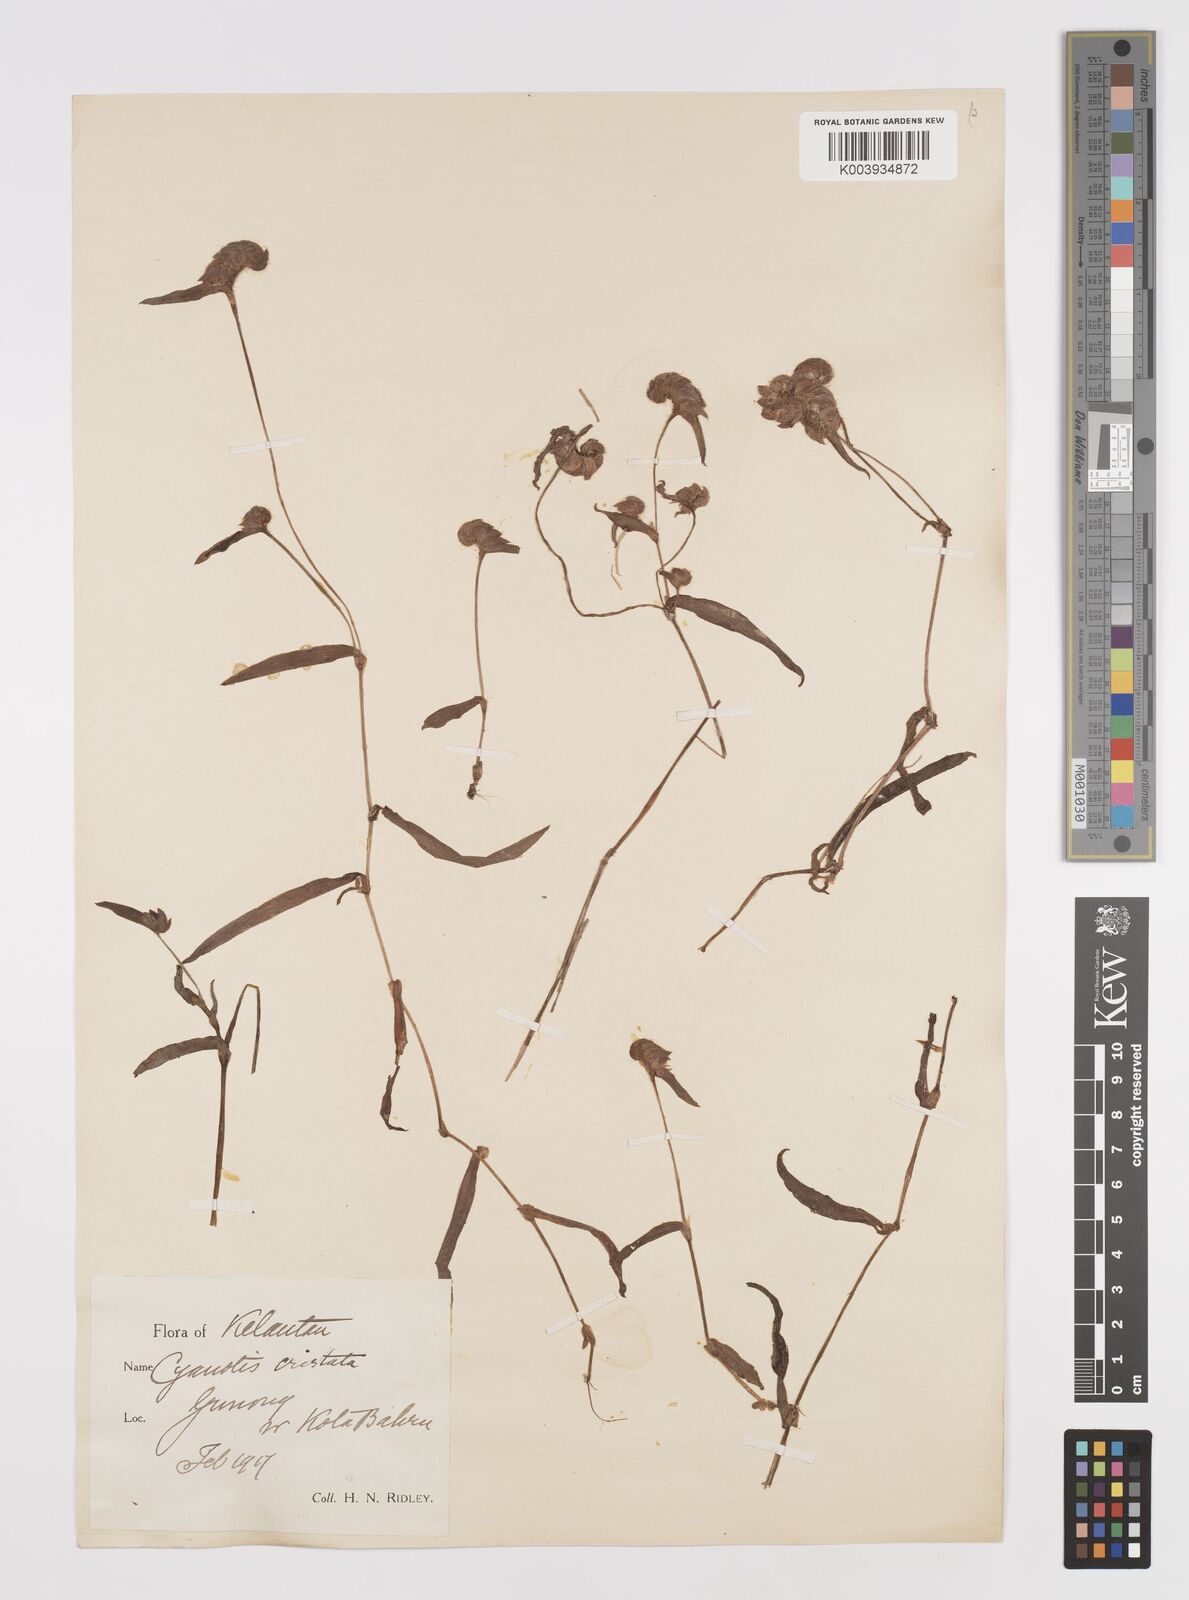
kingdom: Plantae
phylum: Tracheophyta
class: Liliopsida
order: Commelinales
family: Commelinaceae
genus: Cyanotis
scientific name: Cyanotis cristata
